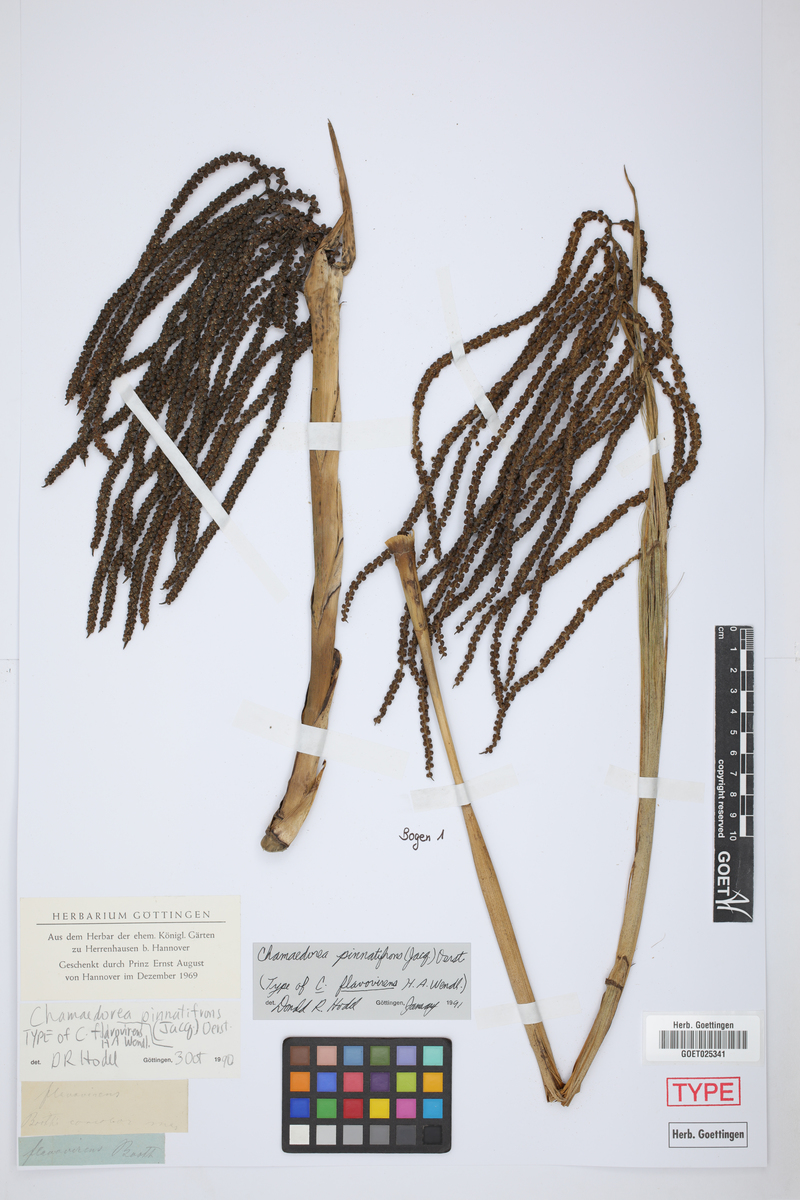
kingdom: Plantae
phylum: Tracheophyta
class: Liliopsida
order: Arecales
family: Arecaceae
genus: Chamaedorea
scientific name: Chamaedorea pinnatifrons
